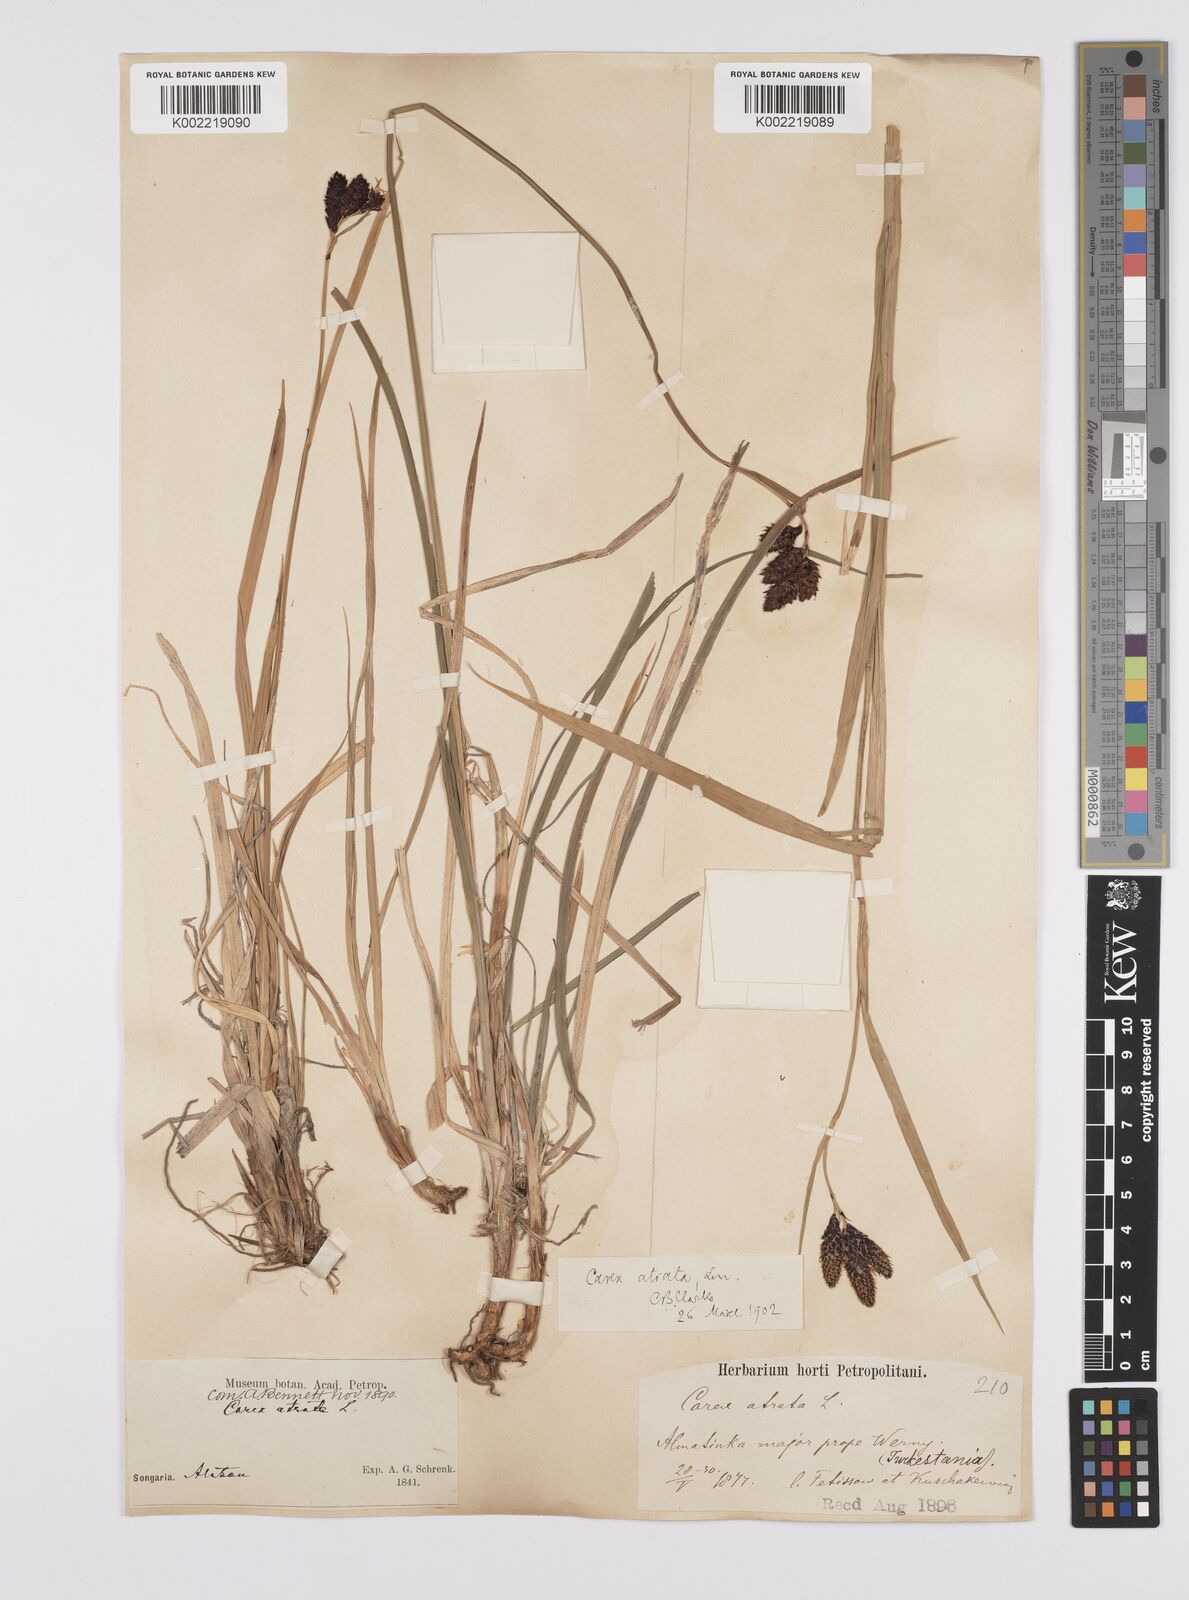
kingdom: Plantae
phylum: Tracheophyta
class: Liliopsida
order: Poales
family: Cyperaceae
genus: Carex
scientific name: Carex aterrima
